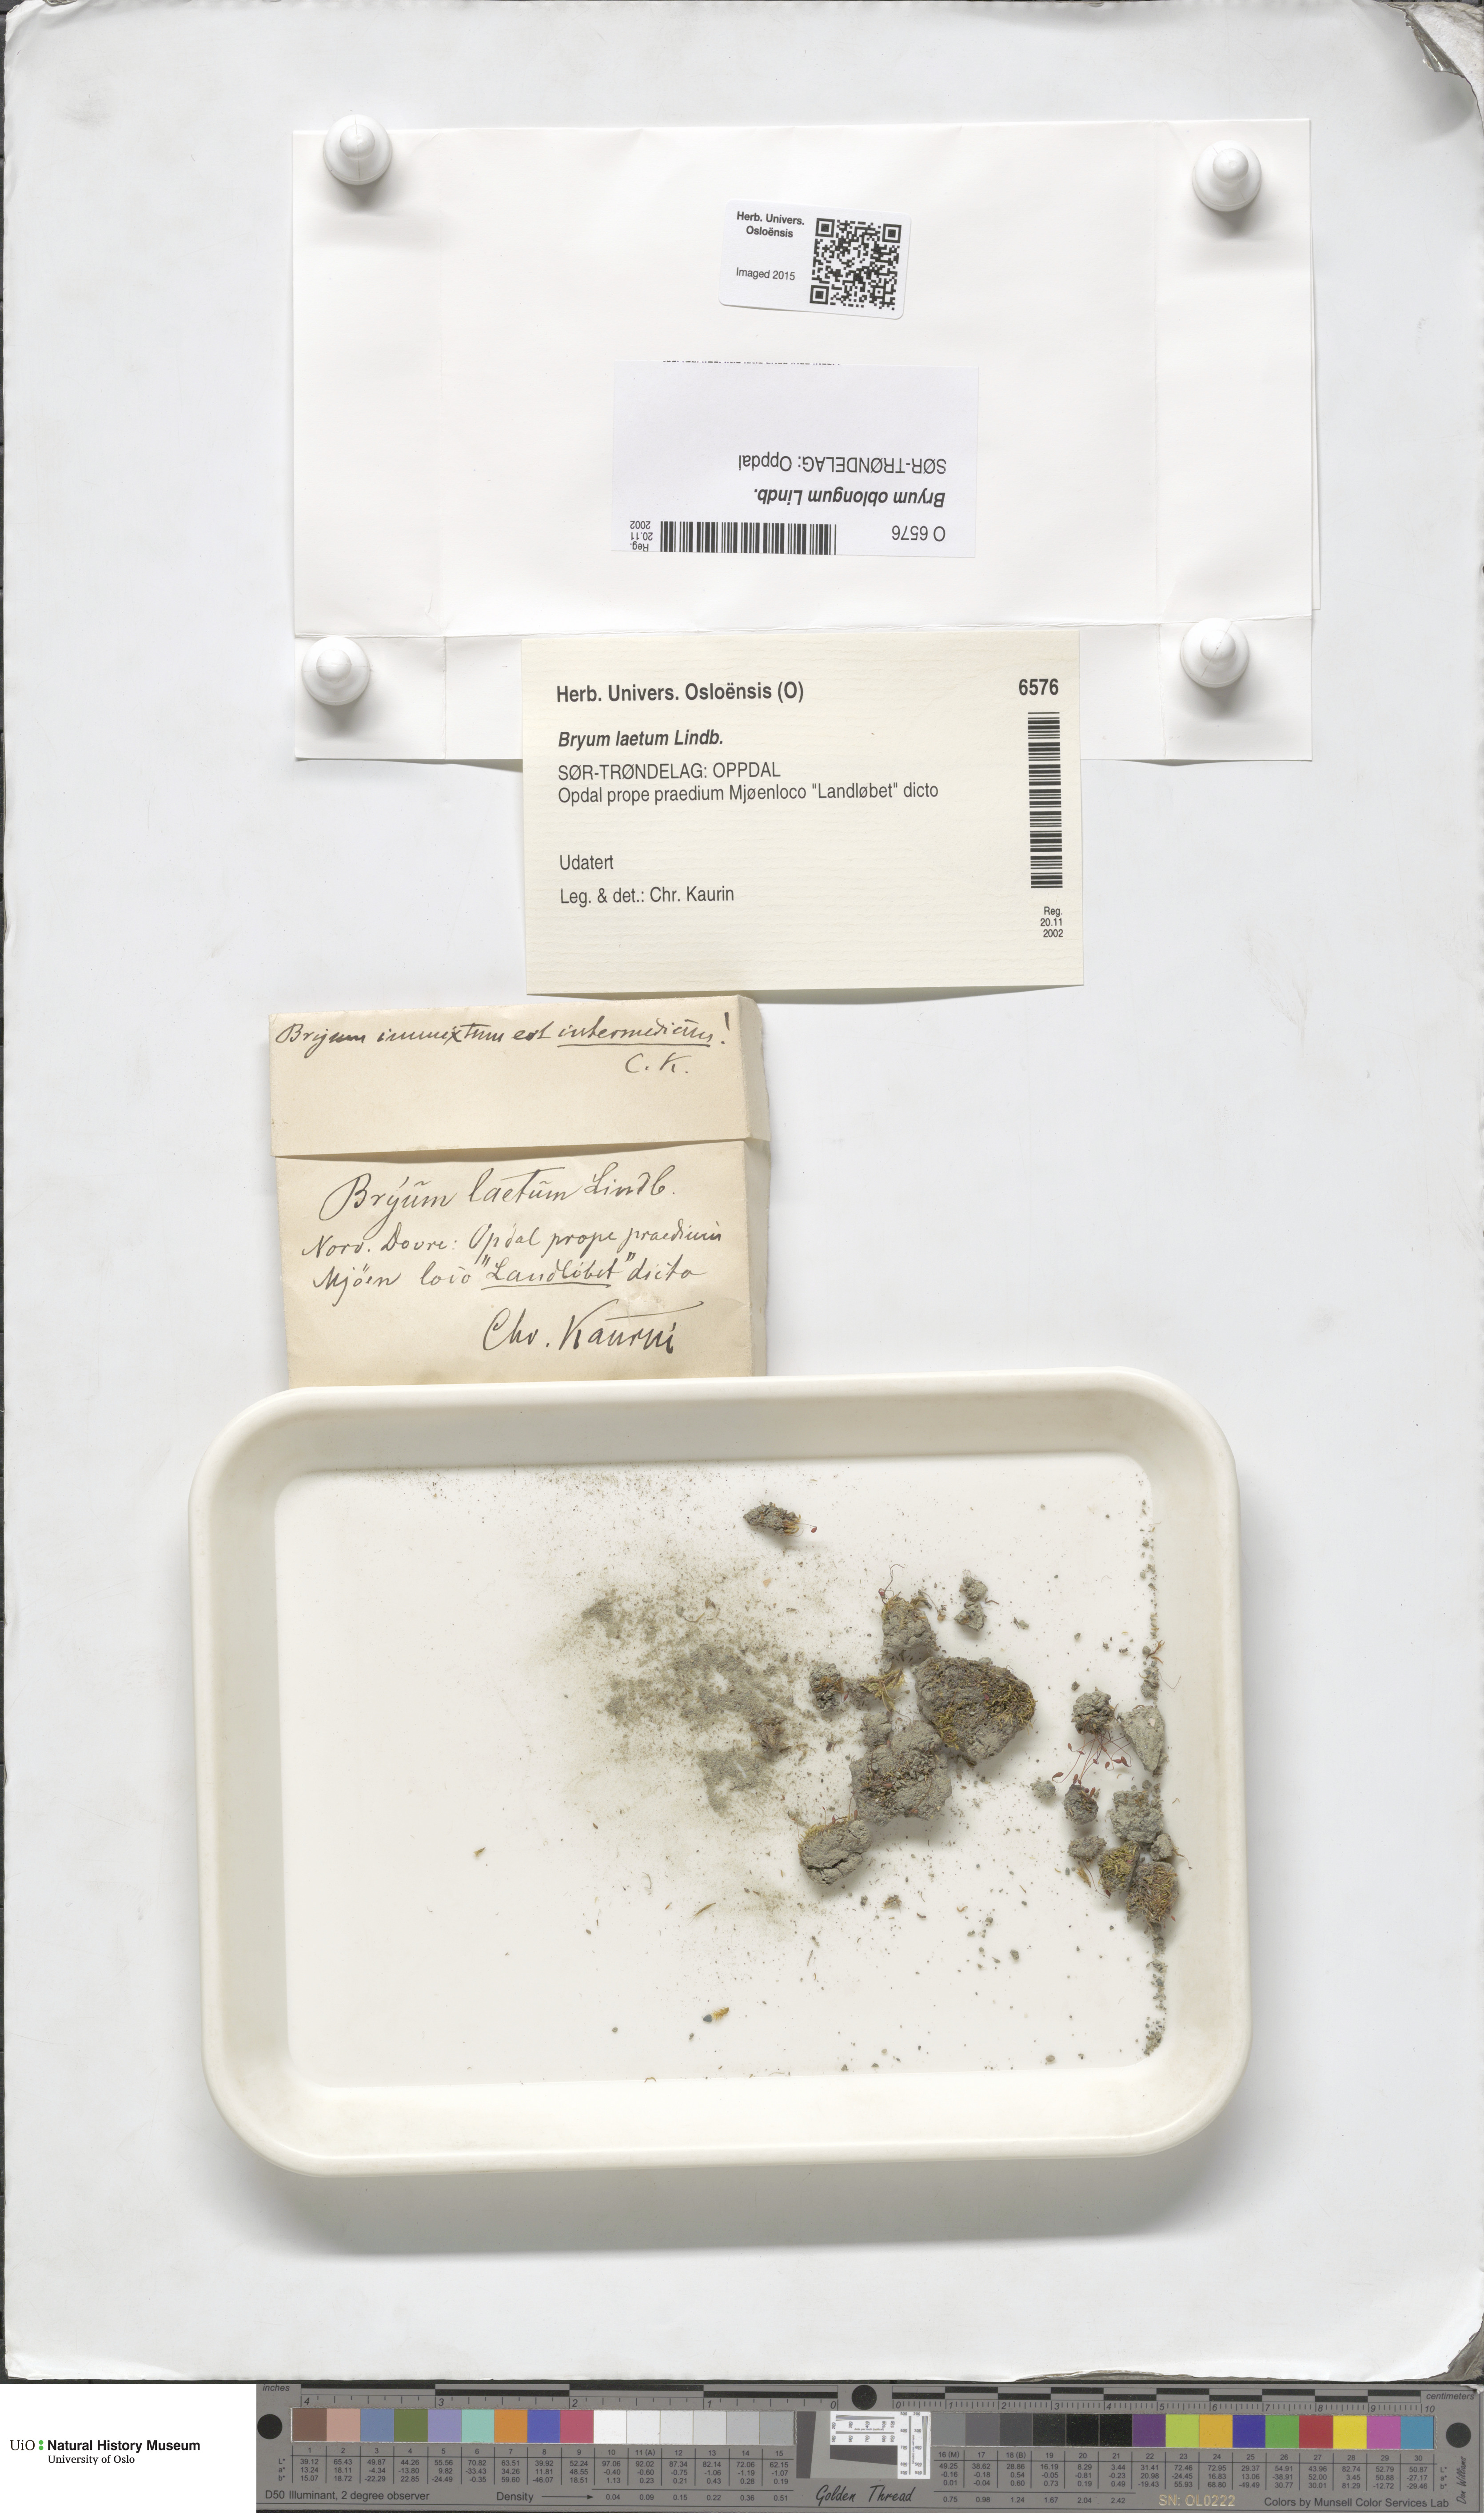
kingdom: Plantae
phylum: Bryophyta
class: Bryopsida
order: Bryales
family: Bryaceae
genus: Bryum
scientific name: Bryum oblongum
